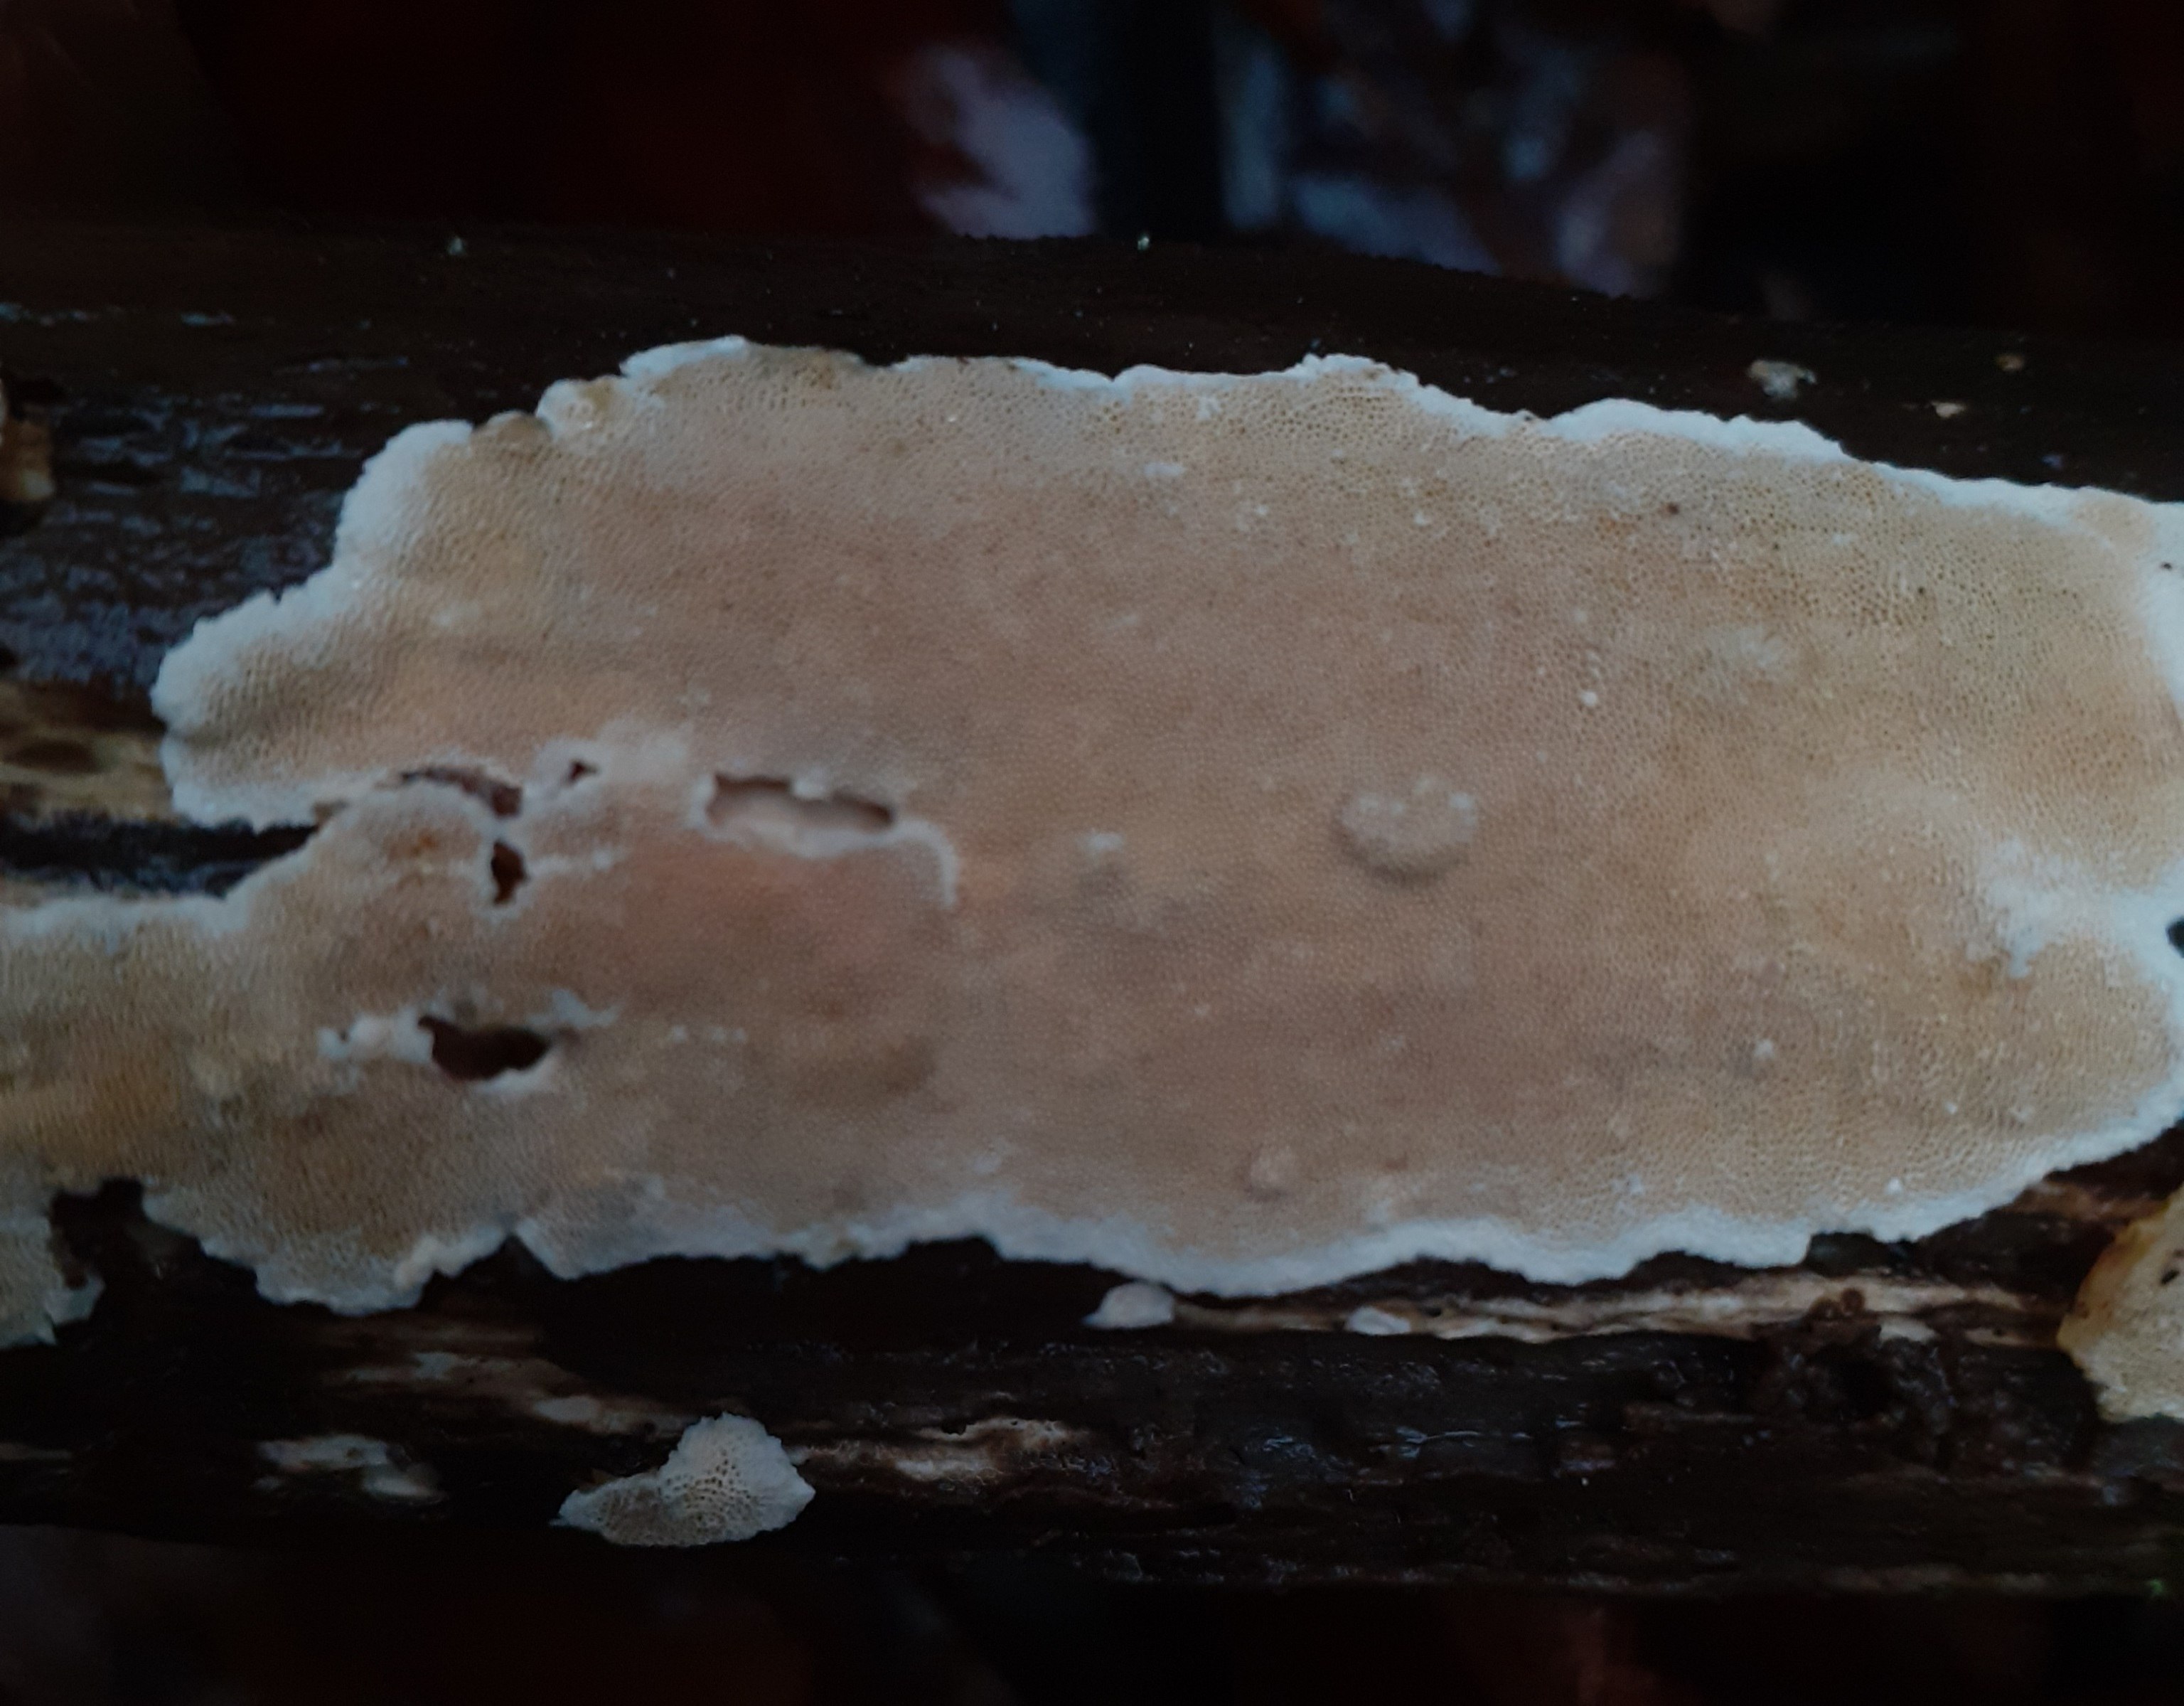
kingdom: Fungi
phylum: Basidiomycota
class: Agaricomycetes
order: Polyporales
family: Steccherinaceae
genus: Steccherinum
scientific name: Steccherinum ochraceum
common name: almindelig skønpig
